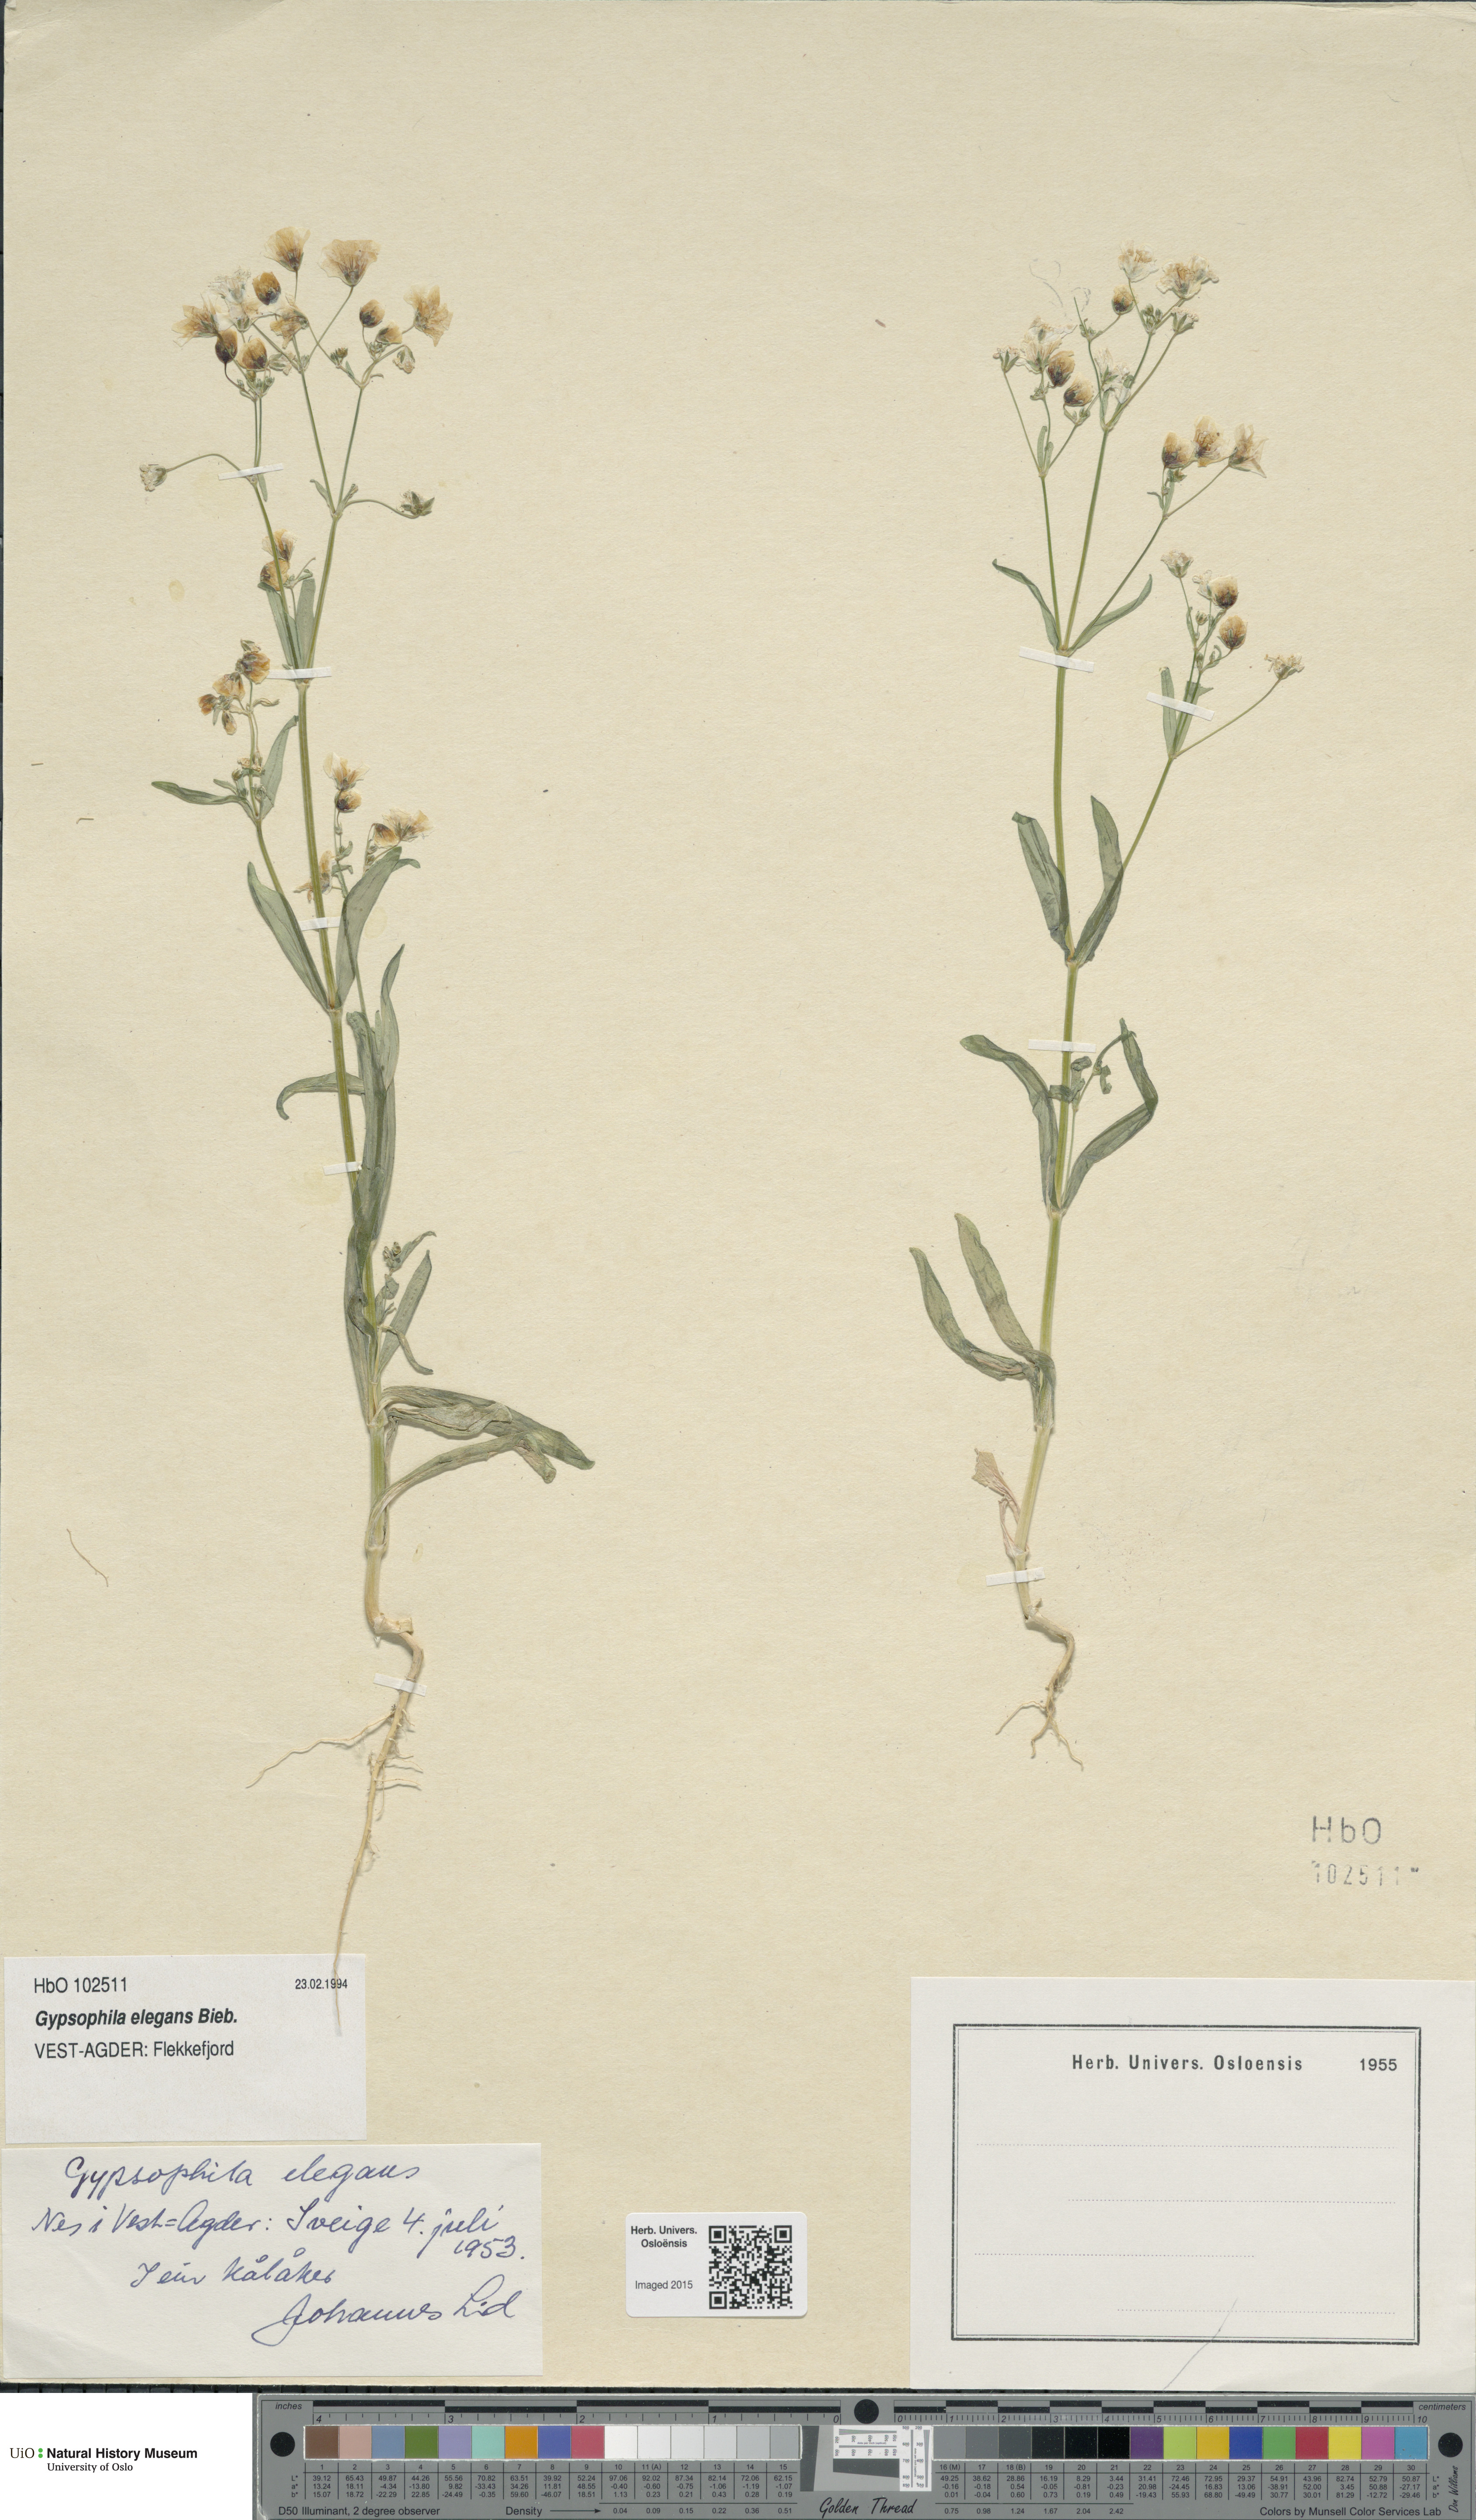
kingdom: Plantae
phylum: Tracheophyta
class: Magnoliopsida
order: Caryophyllales
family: Caryophyllaceae
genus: Gypsophila
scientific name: Gypsophila elegans
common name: Showy baby's-breath
